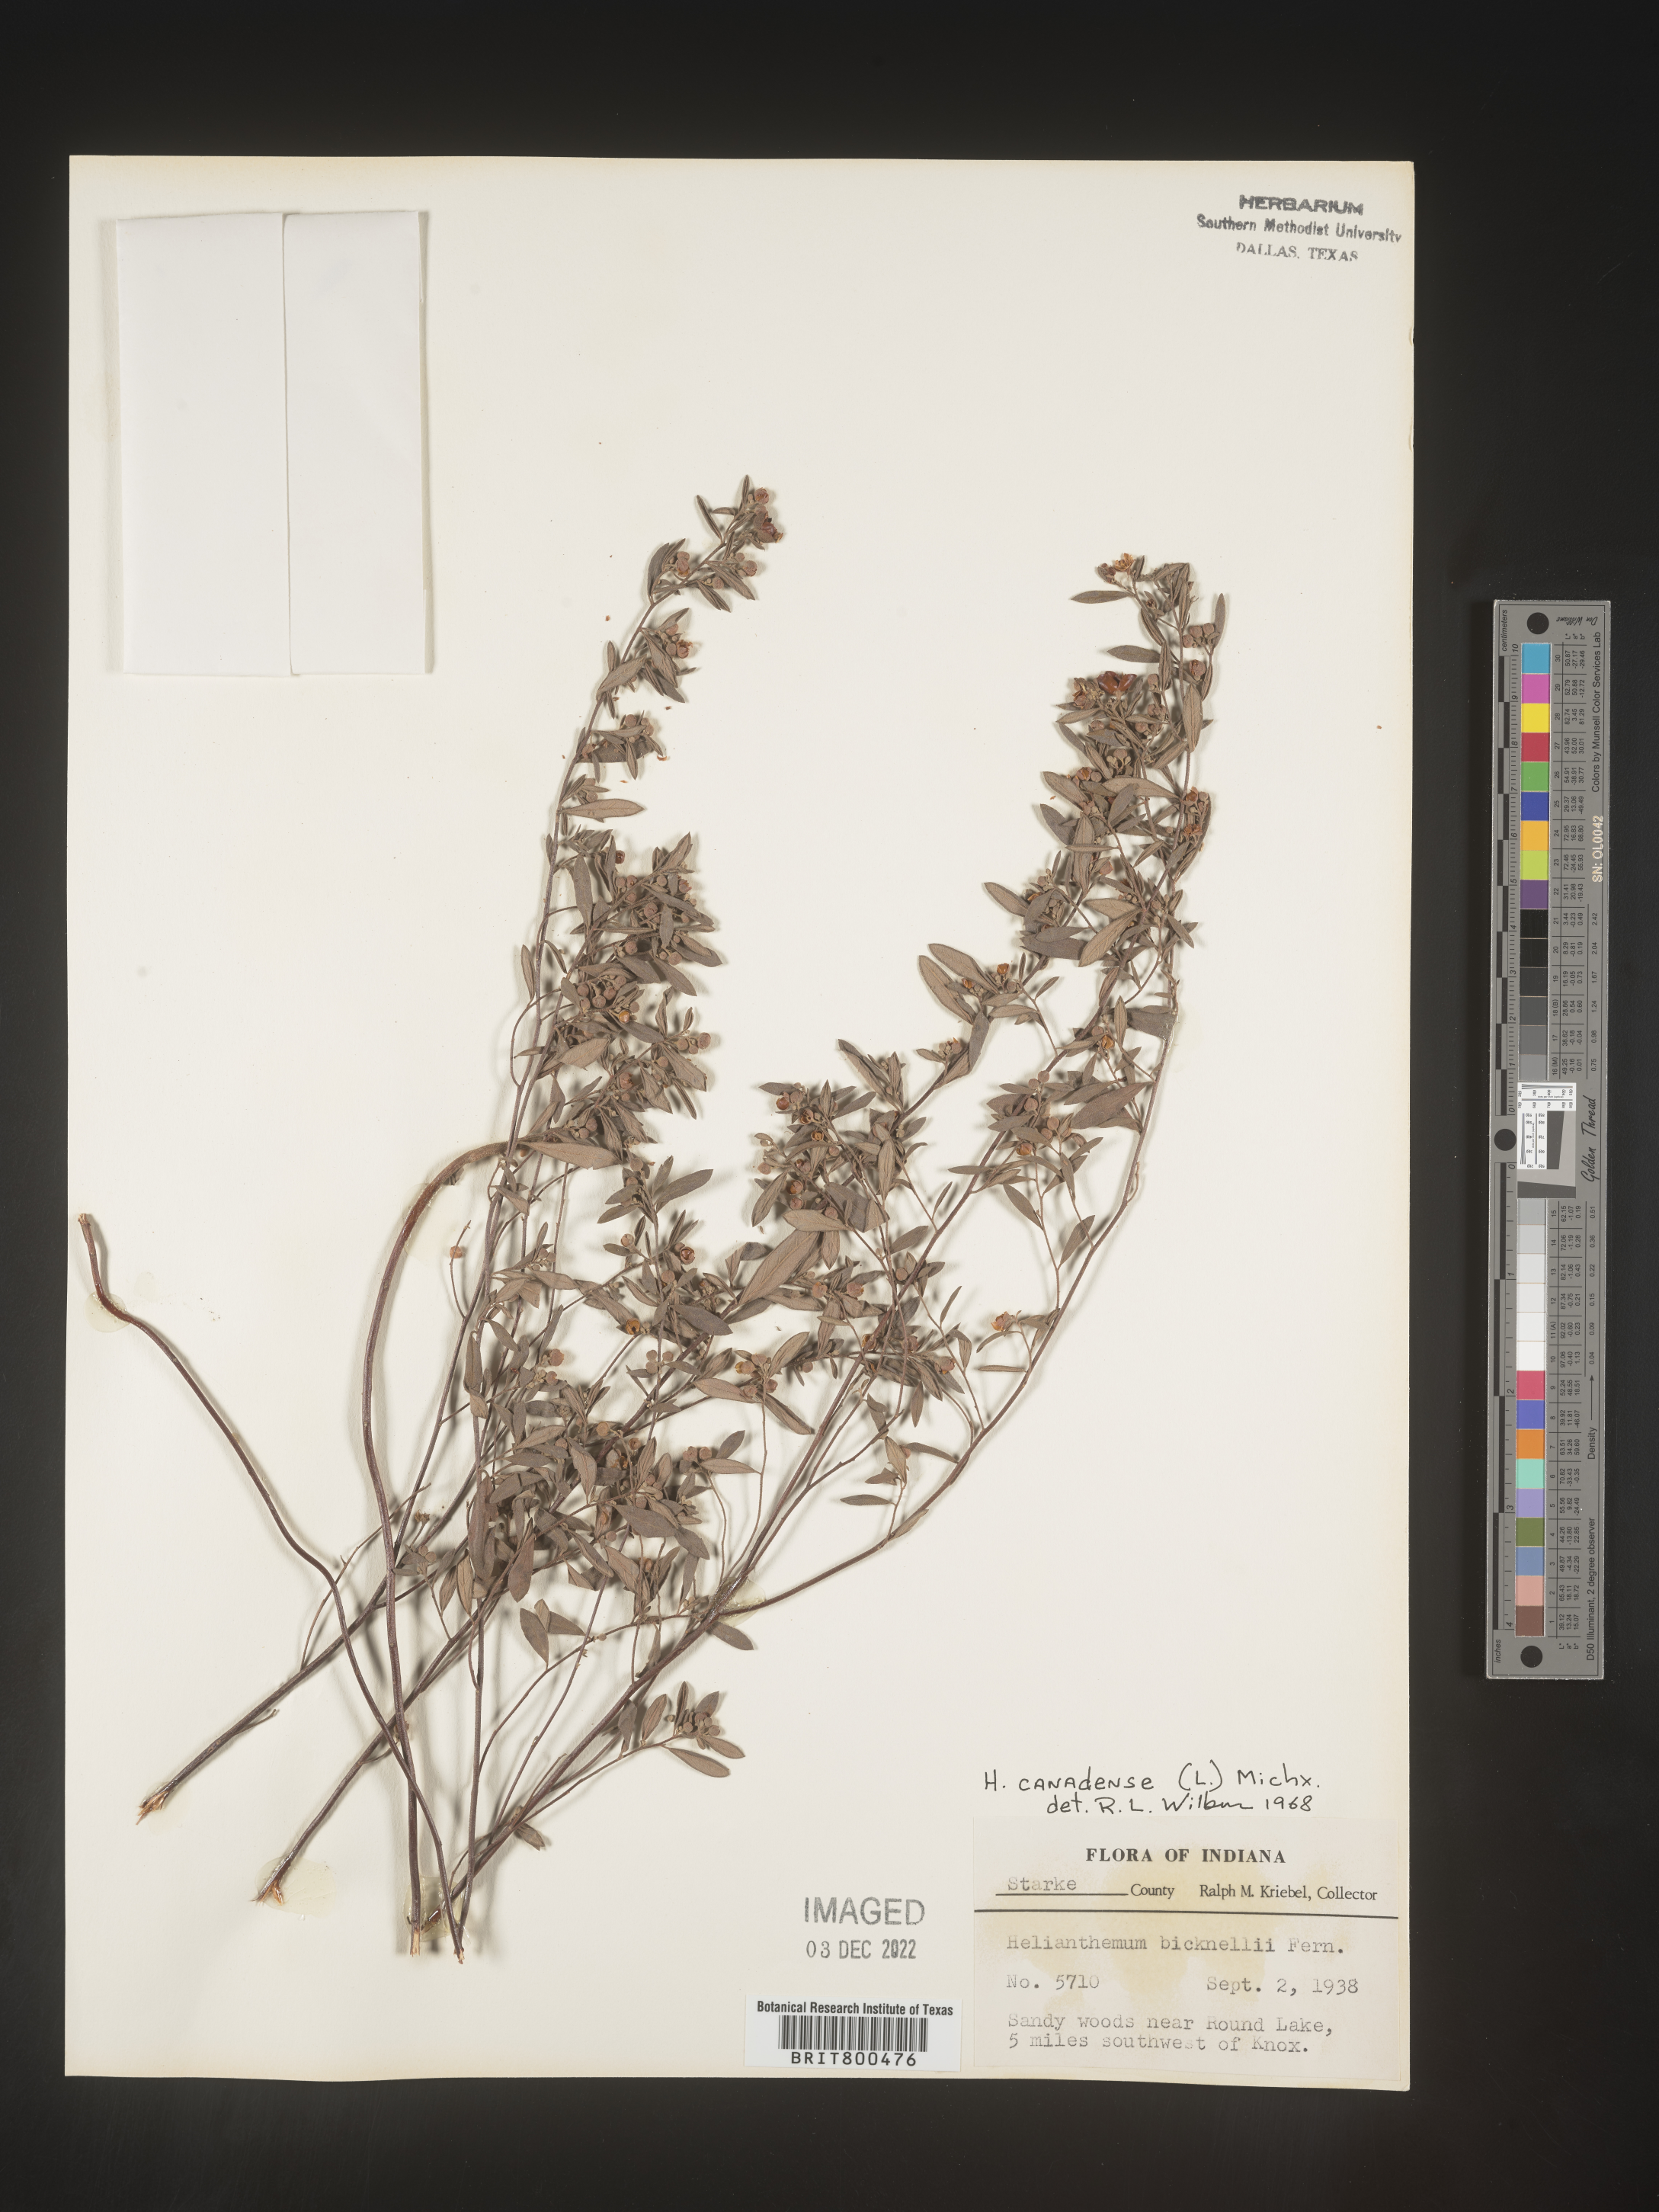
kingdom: Plantae
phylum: Tracheophyta
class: Magnoliopsida
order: Malvales
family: Cistaceae
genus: Crocanthemum
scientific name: Crocanthemum canadense
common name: Canada frostweed
